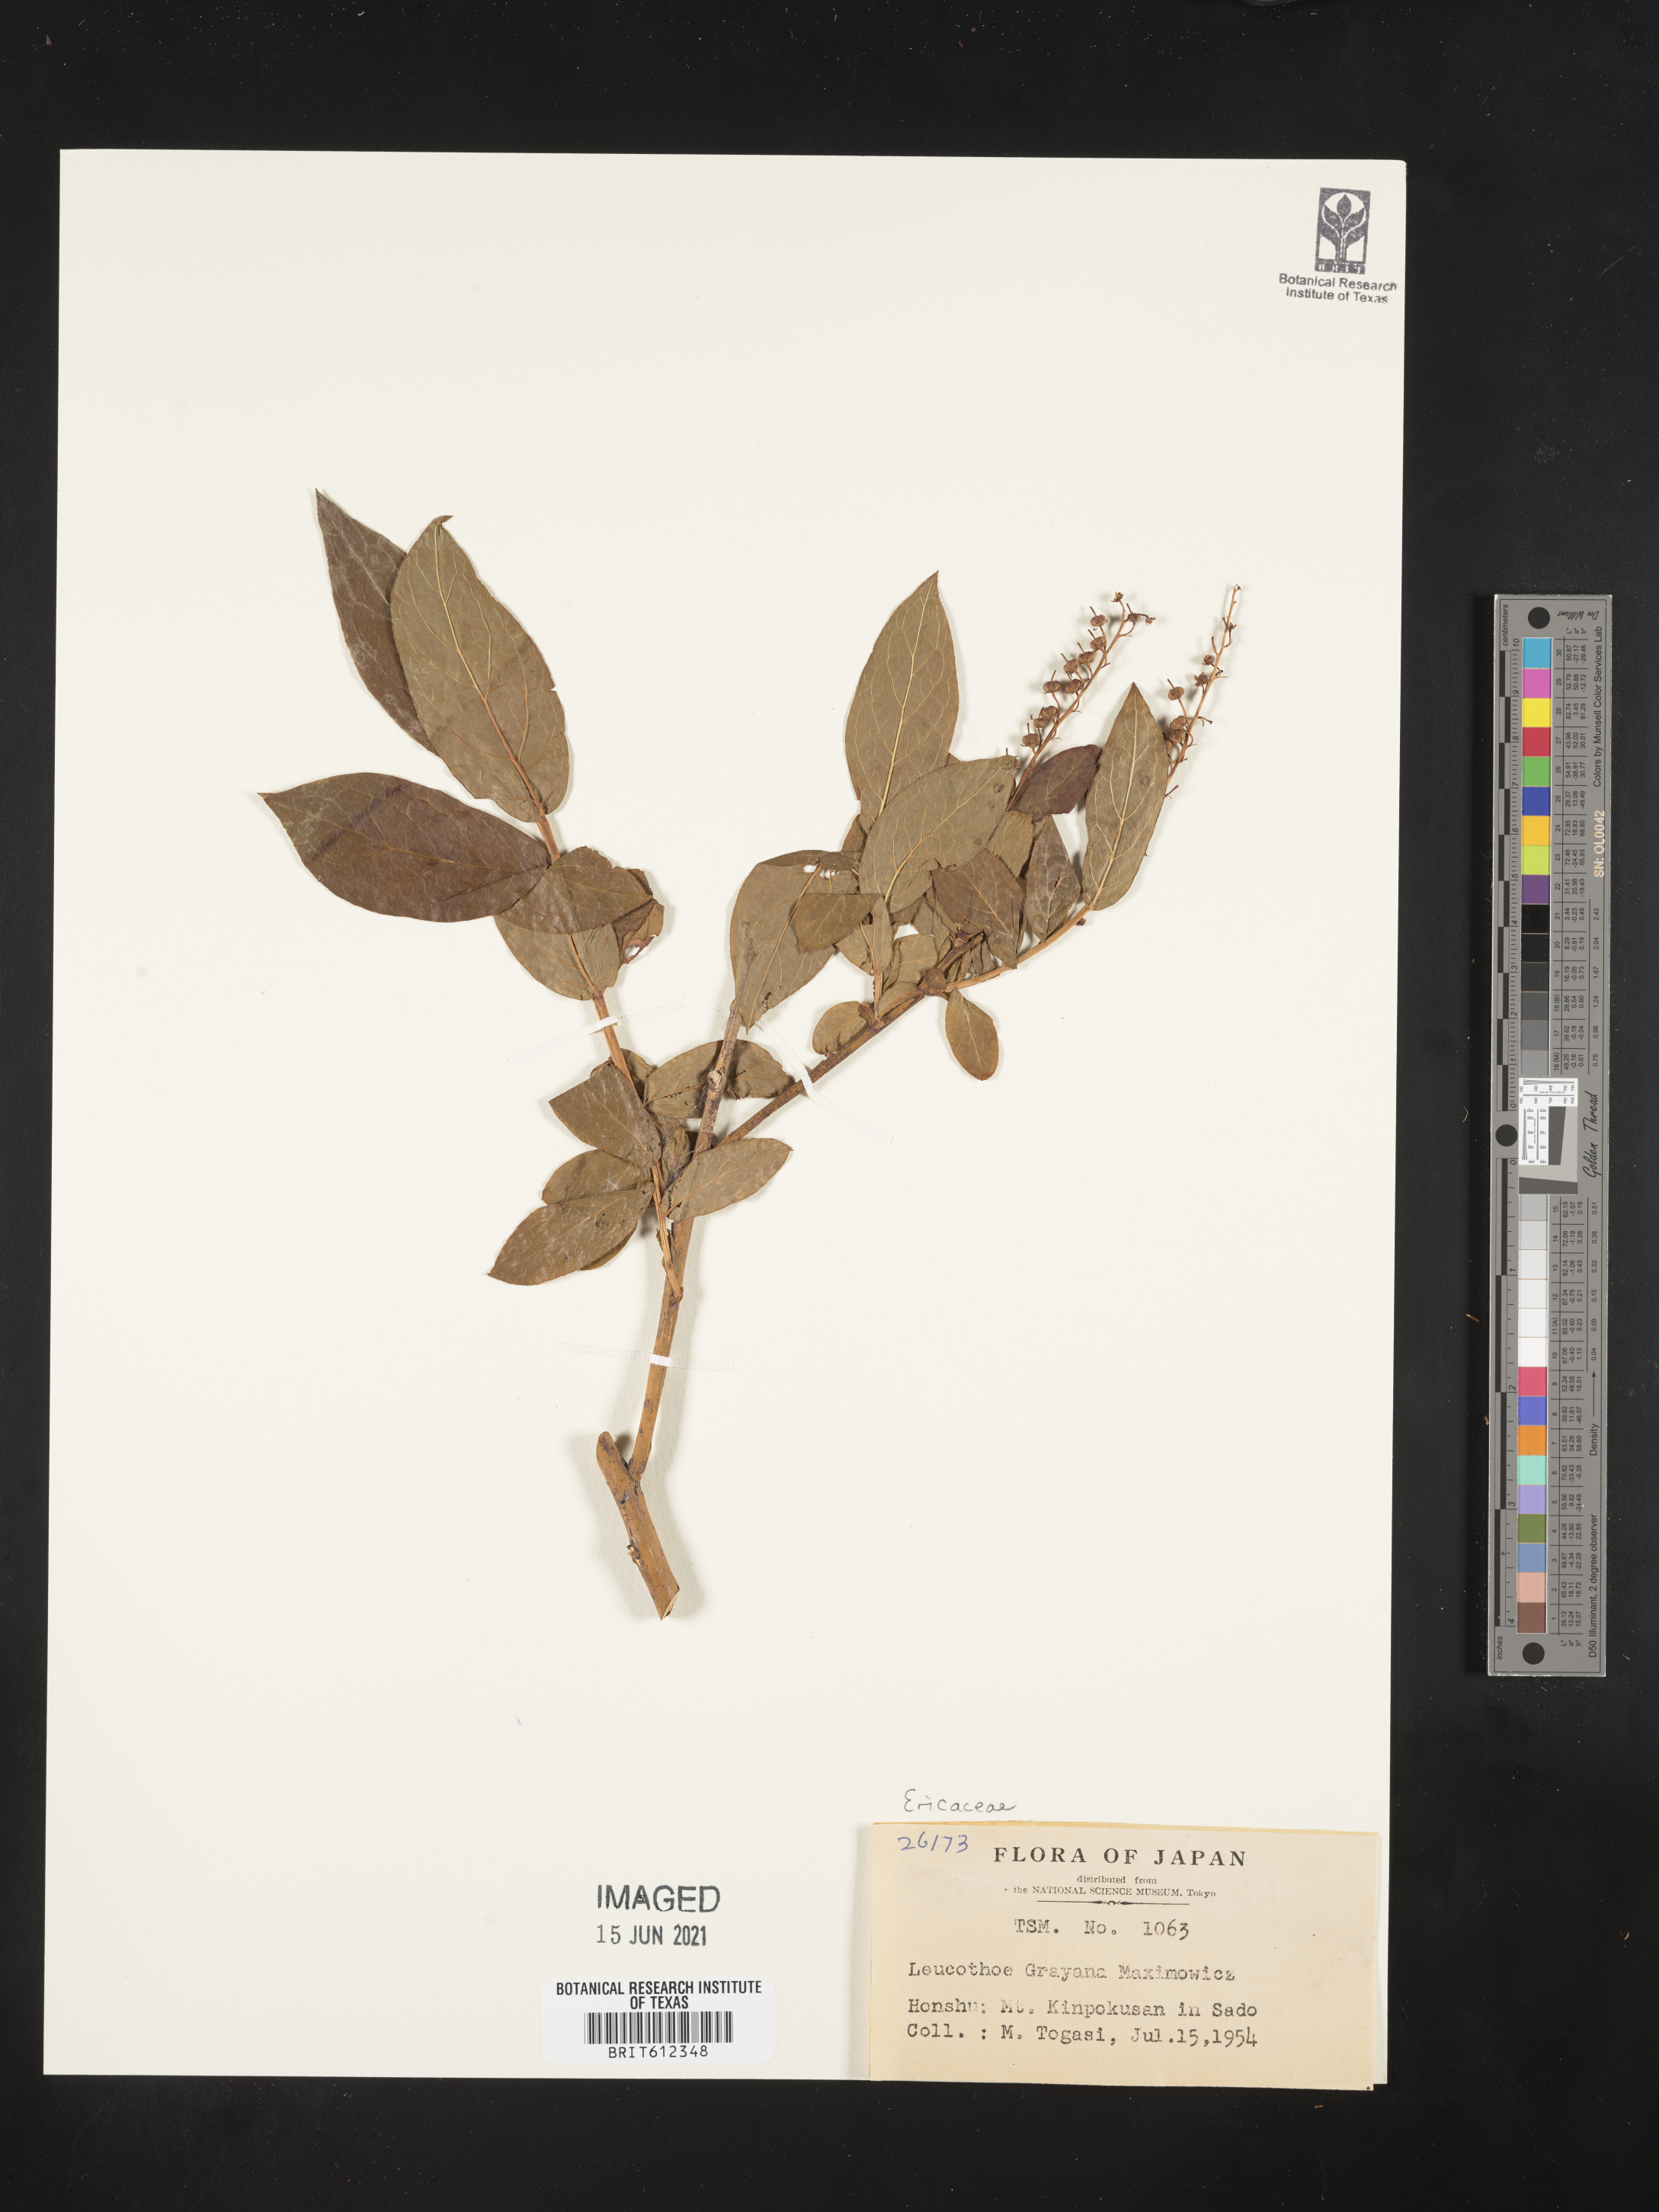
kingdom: Plantae
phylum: Tracheophyta
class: Magnoliopsida
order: Ericales
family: Ericaceae
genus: Leucothoe
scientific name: Leucothoe grayana
